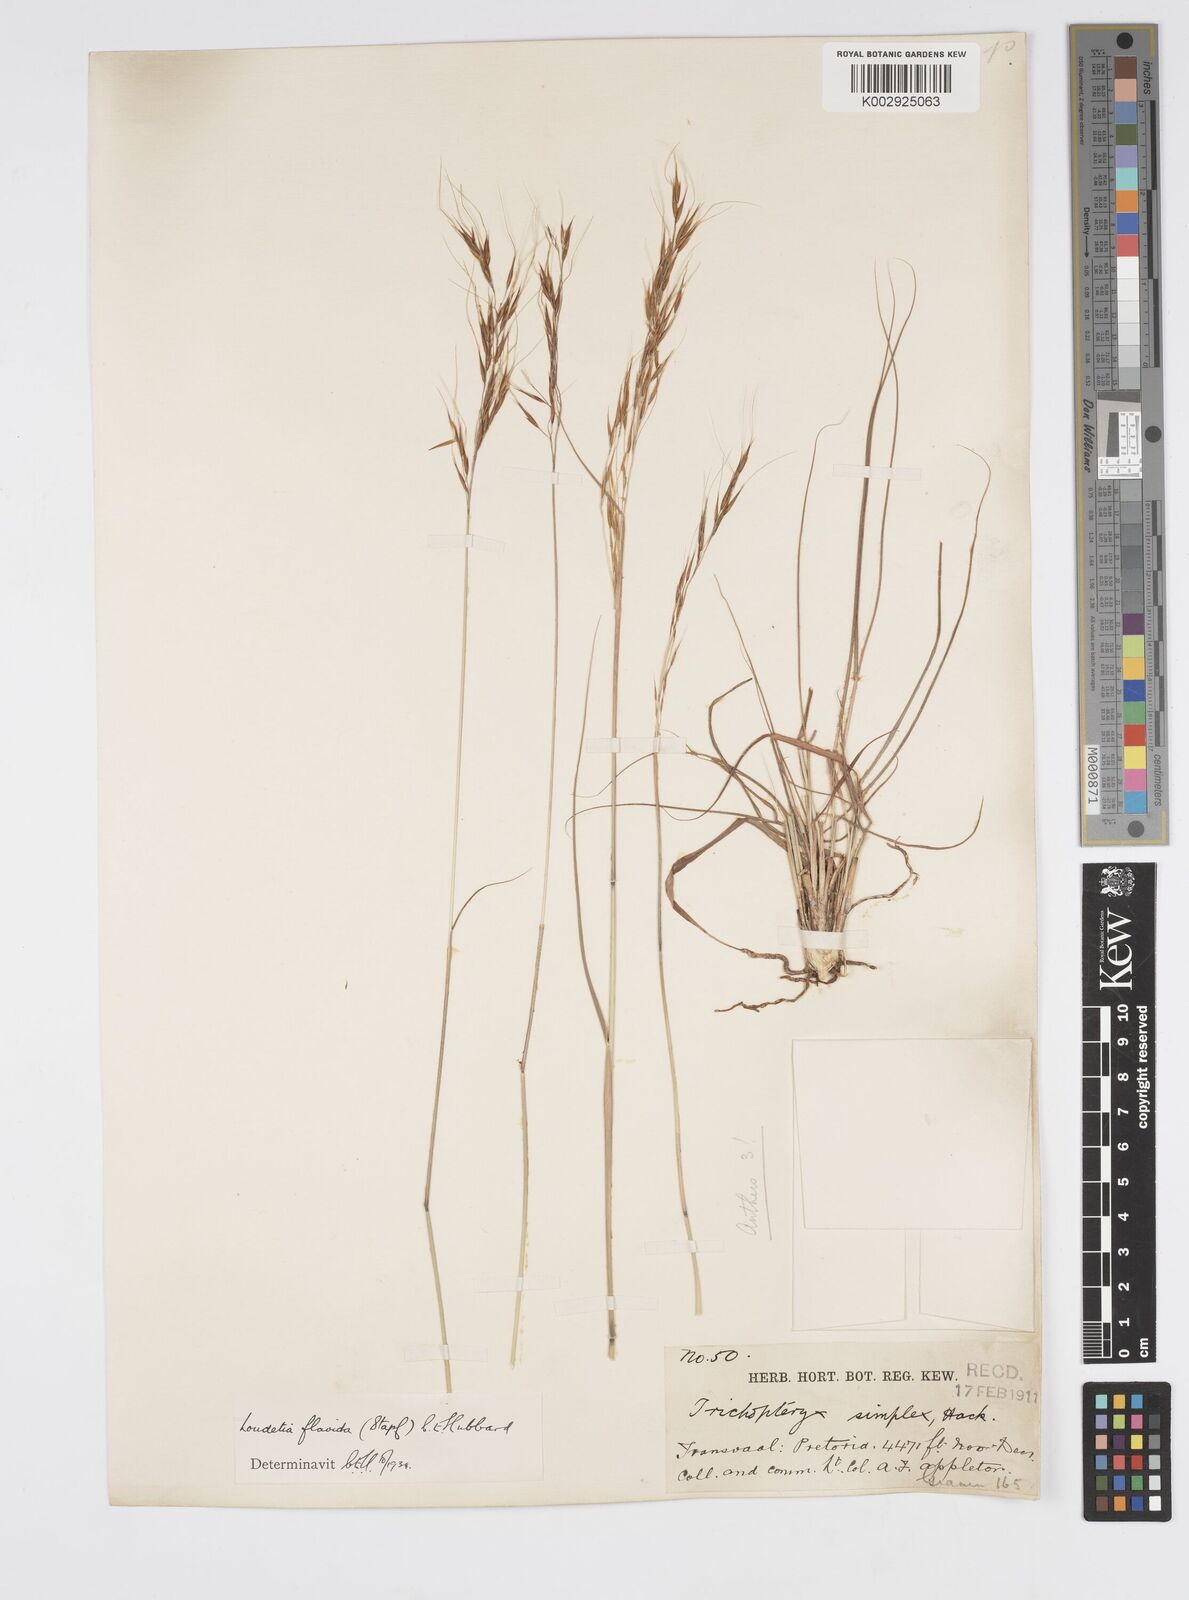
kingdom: Plantae
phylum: Tracheophyta
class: Liliopsida
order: Poales
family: Poaceae
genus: Loudetia
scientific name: Loudetia flavida
